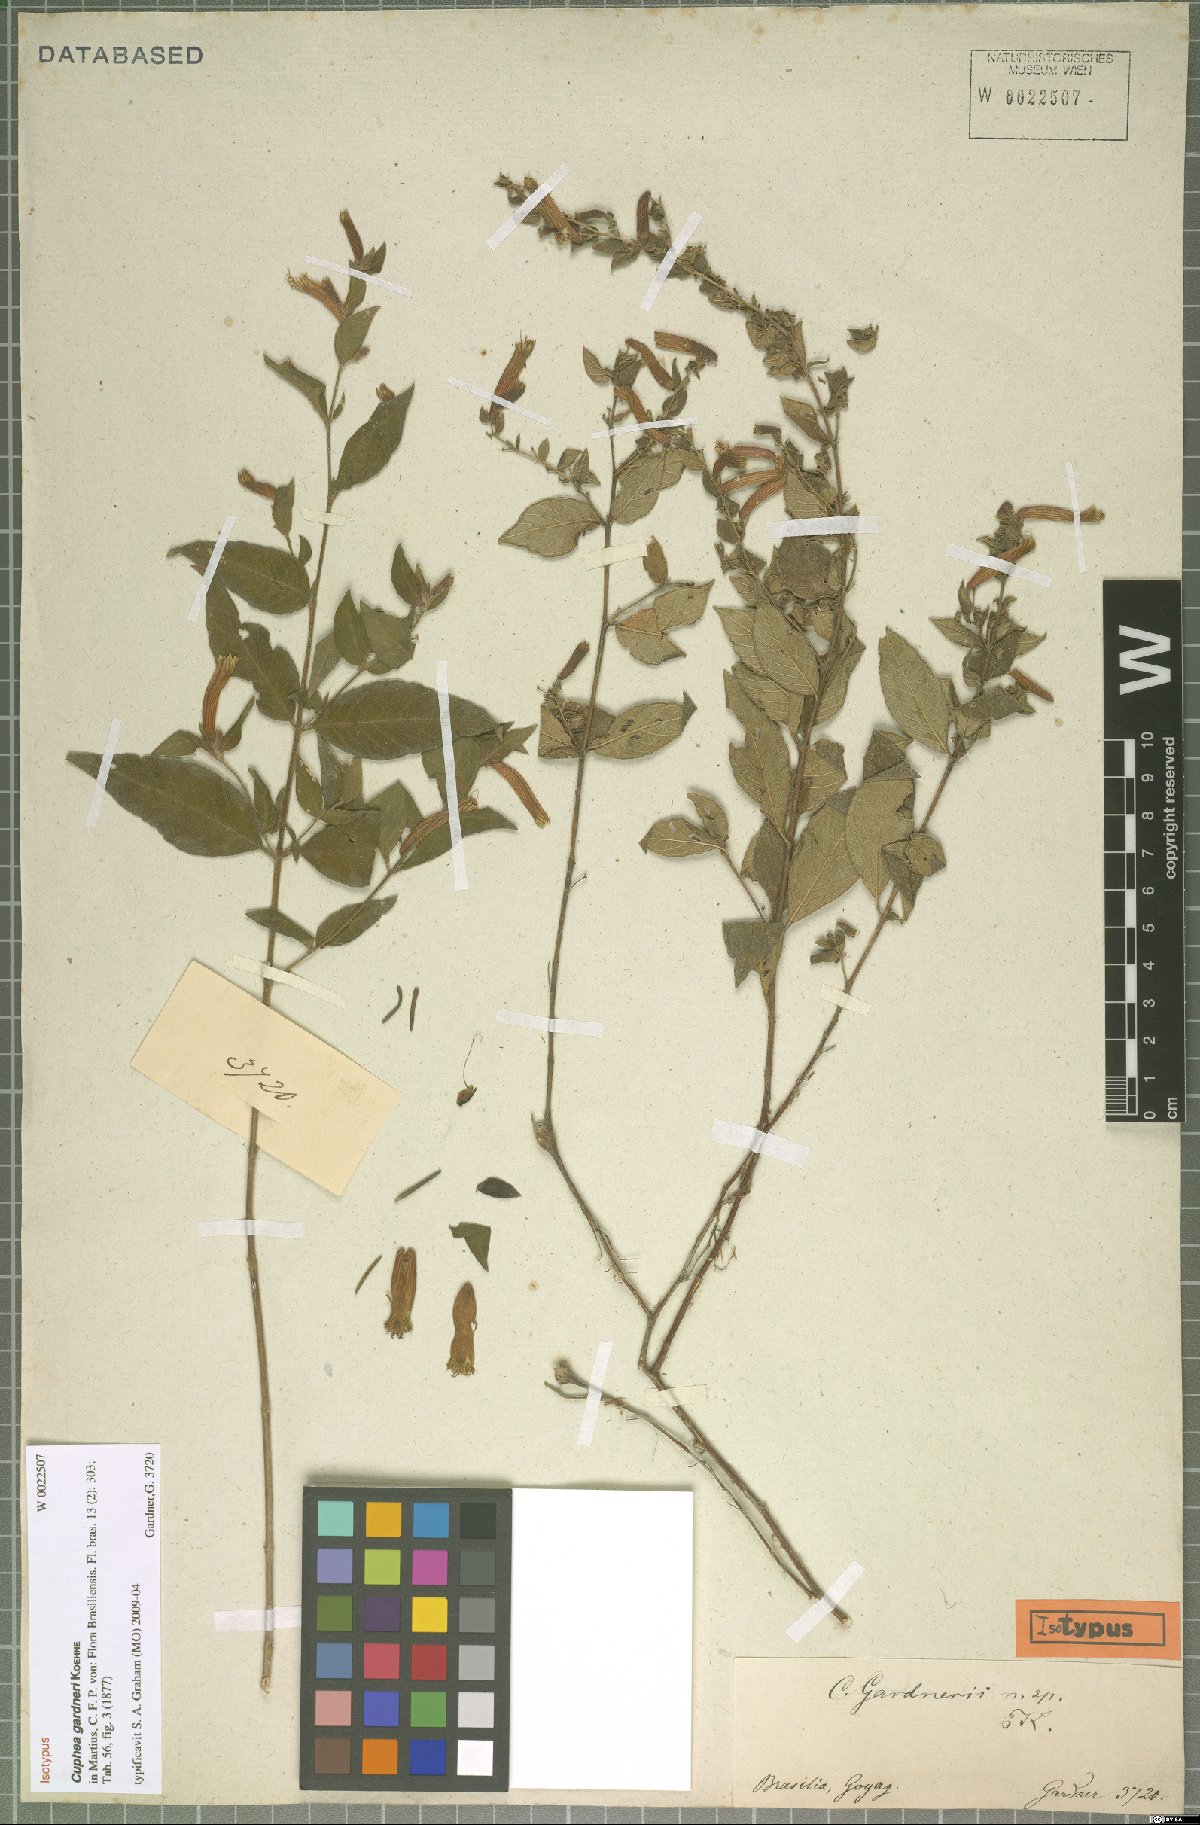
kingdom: Plantae
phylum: Tracheophyta
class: Magnoliopsida
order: Myrtales
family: Lythraceae
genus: Cuphea
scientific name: Cuphea gardneri
